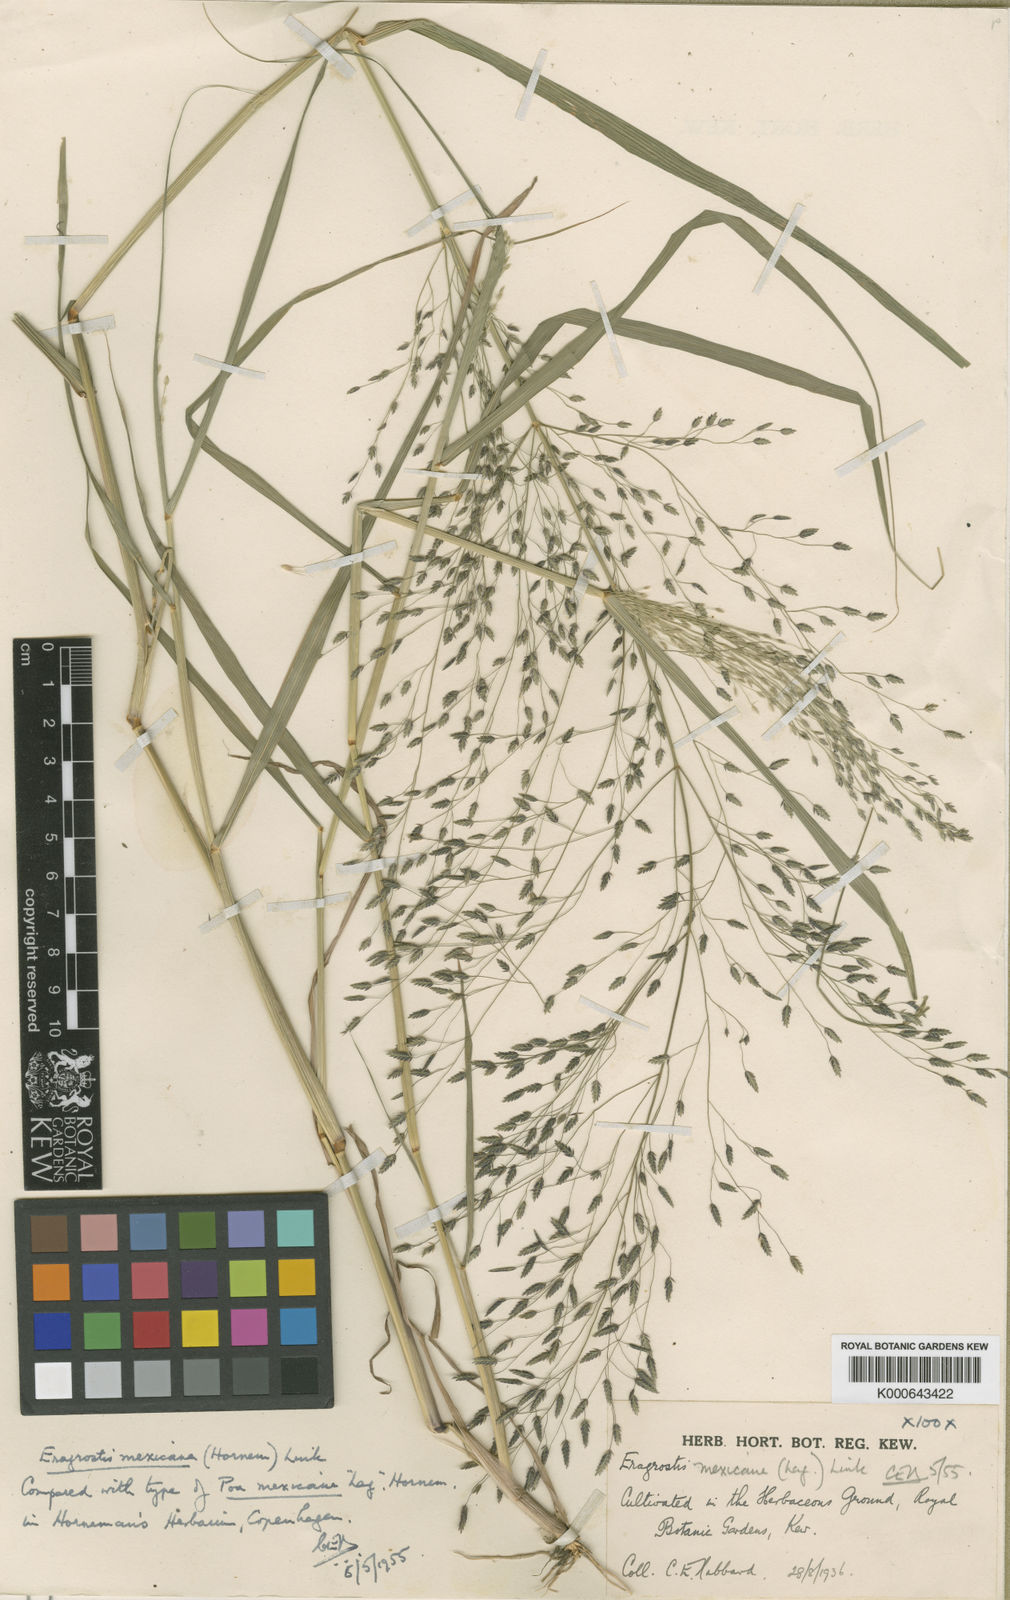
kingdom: Plantae
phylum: Tracheophyta
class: Liliopsida
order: Poales
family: Poaceae
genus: Eragrostis
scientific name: Eragrostis mexicana
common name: Mexican love grass
